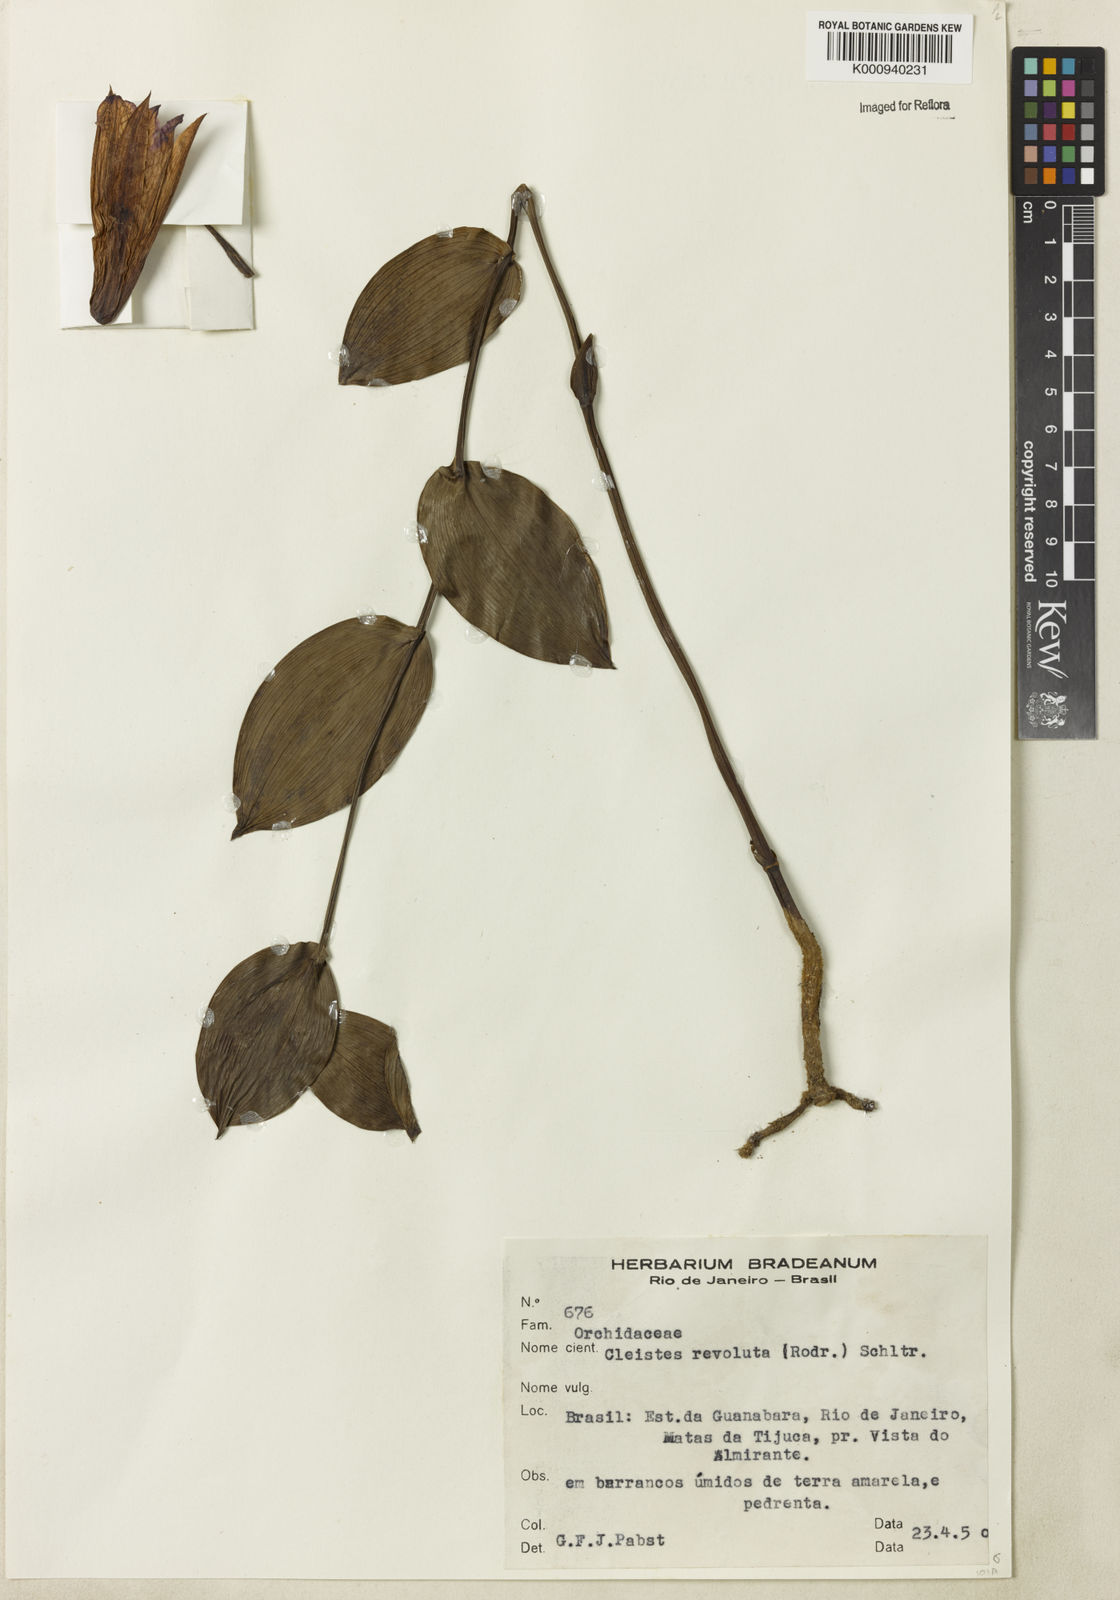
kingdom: Plantae
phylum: Tracheophyta
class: Liliopsida
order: Asparagales
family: Orchidaceae
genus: Cleistes
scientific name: Cleistes libonii
